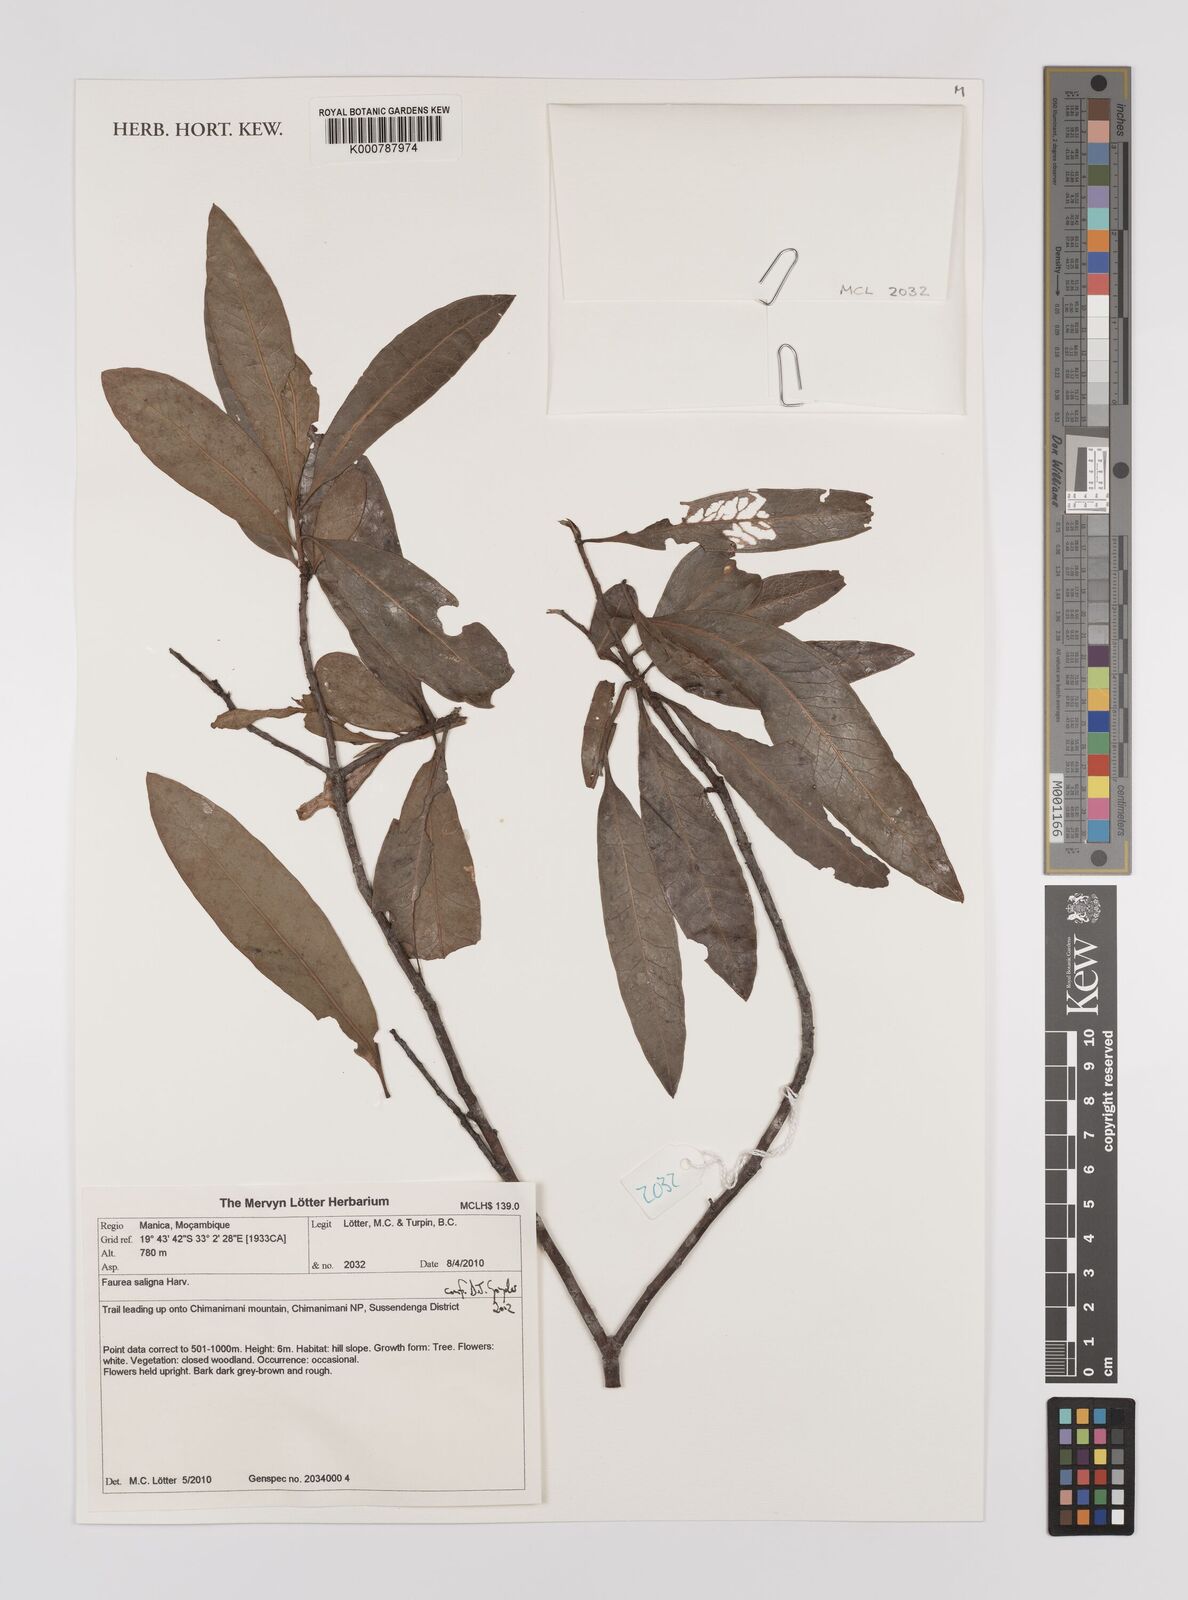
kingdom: Plantae
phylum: Tracheophyta
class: Magnoliopsida
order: Proteales
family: Proteaceae
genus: Faurea
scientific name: Faurea saligna
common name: African bean
